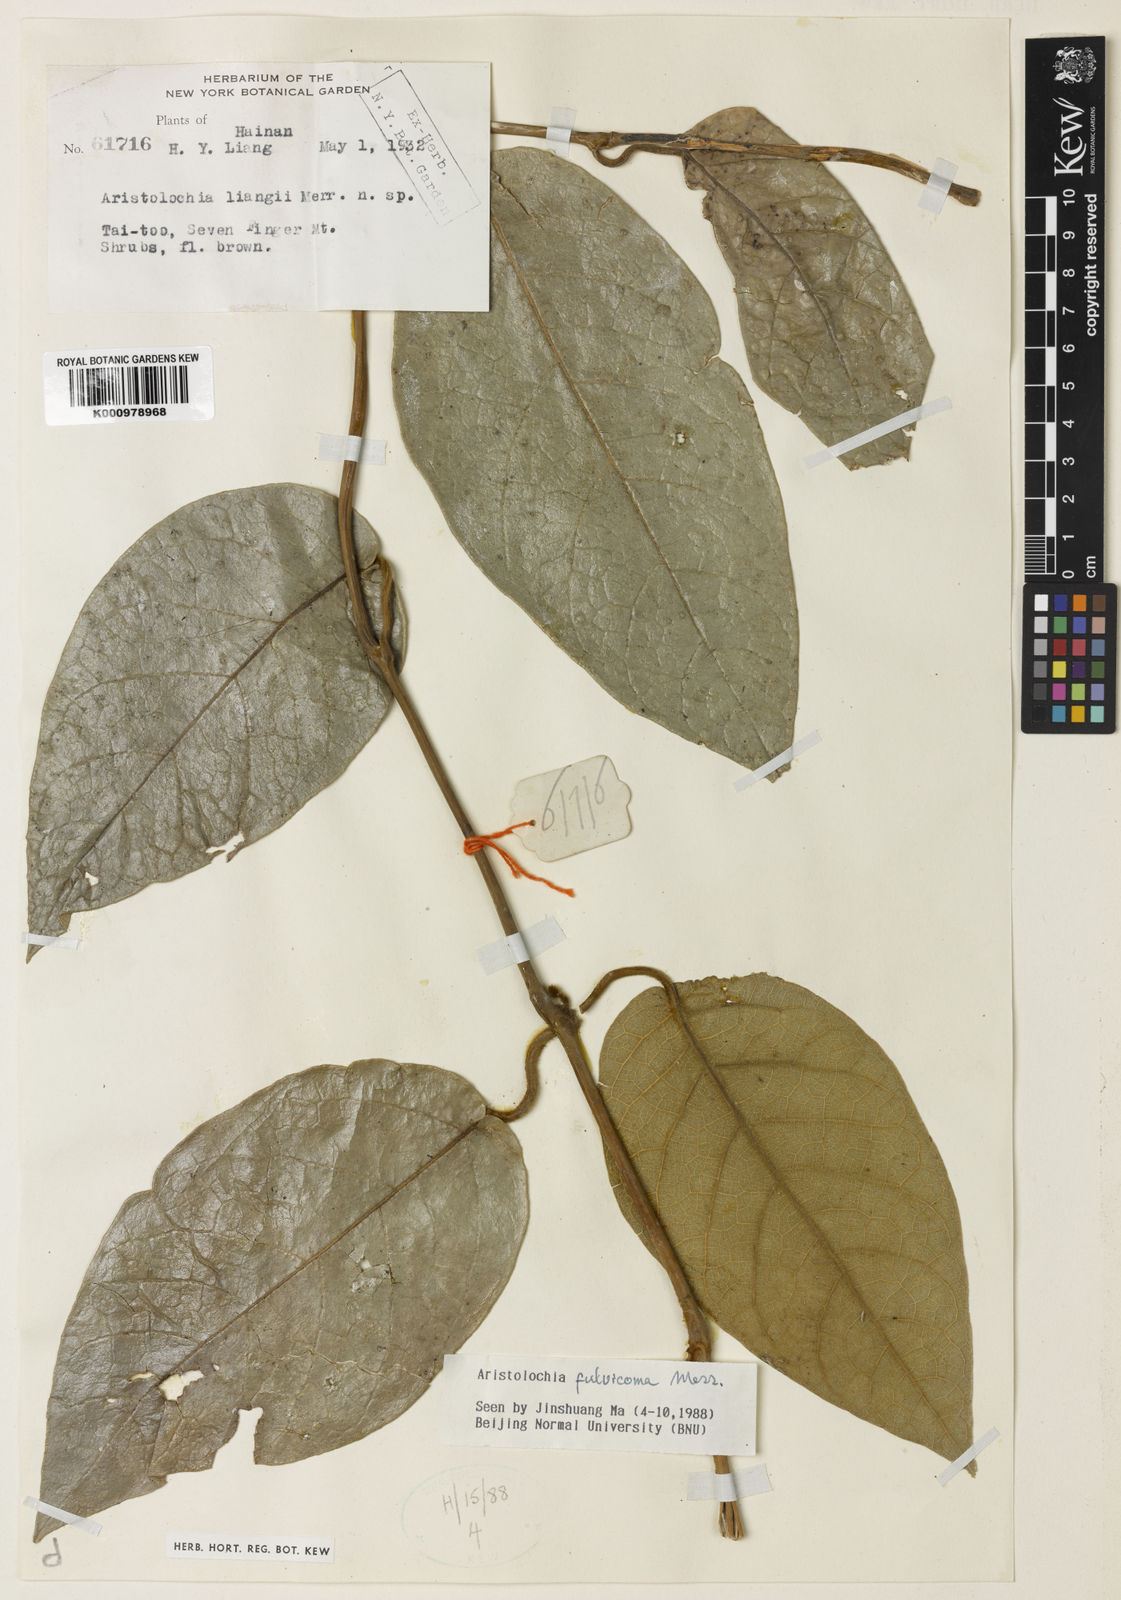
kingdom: Plantae
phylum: Tracheophyta
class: Magnoliopsida
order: Piperales
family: Aristolochiaceae
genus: Aristolochia
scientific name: Aristolochia
